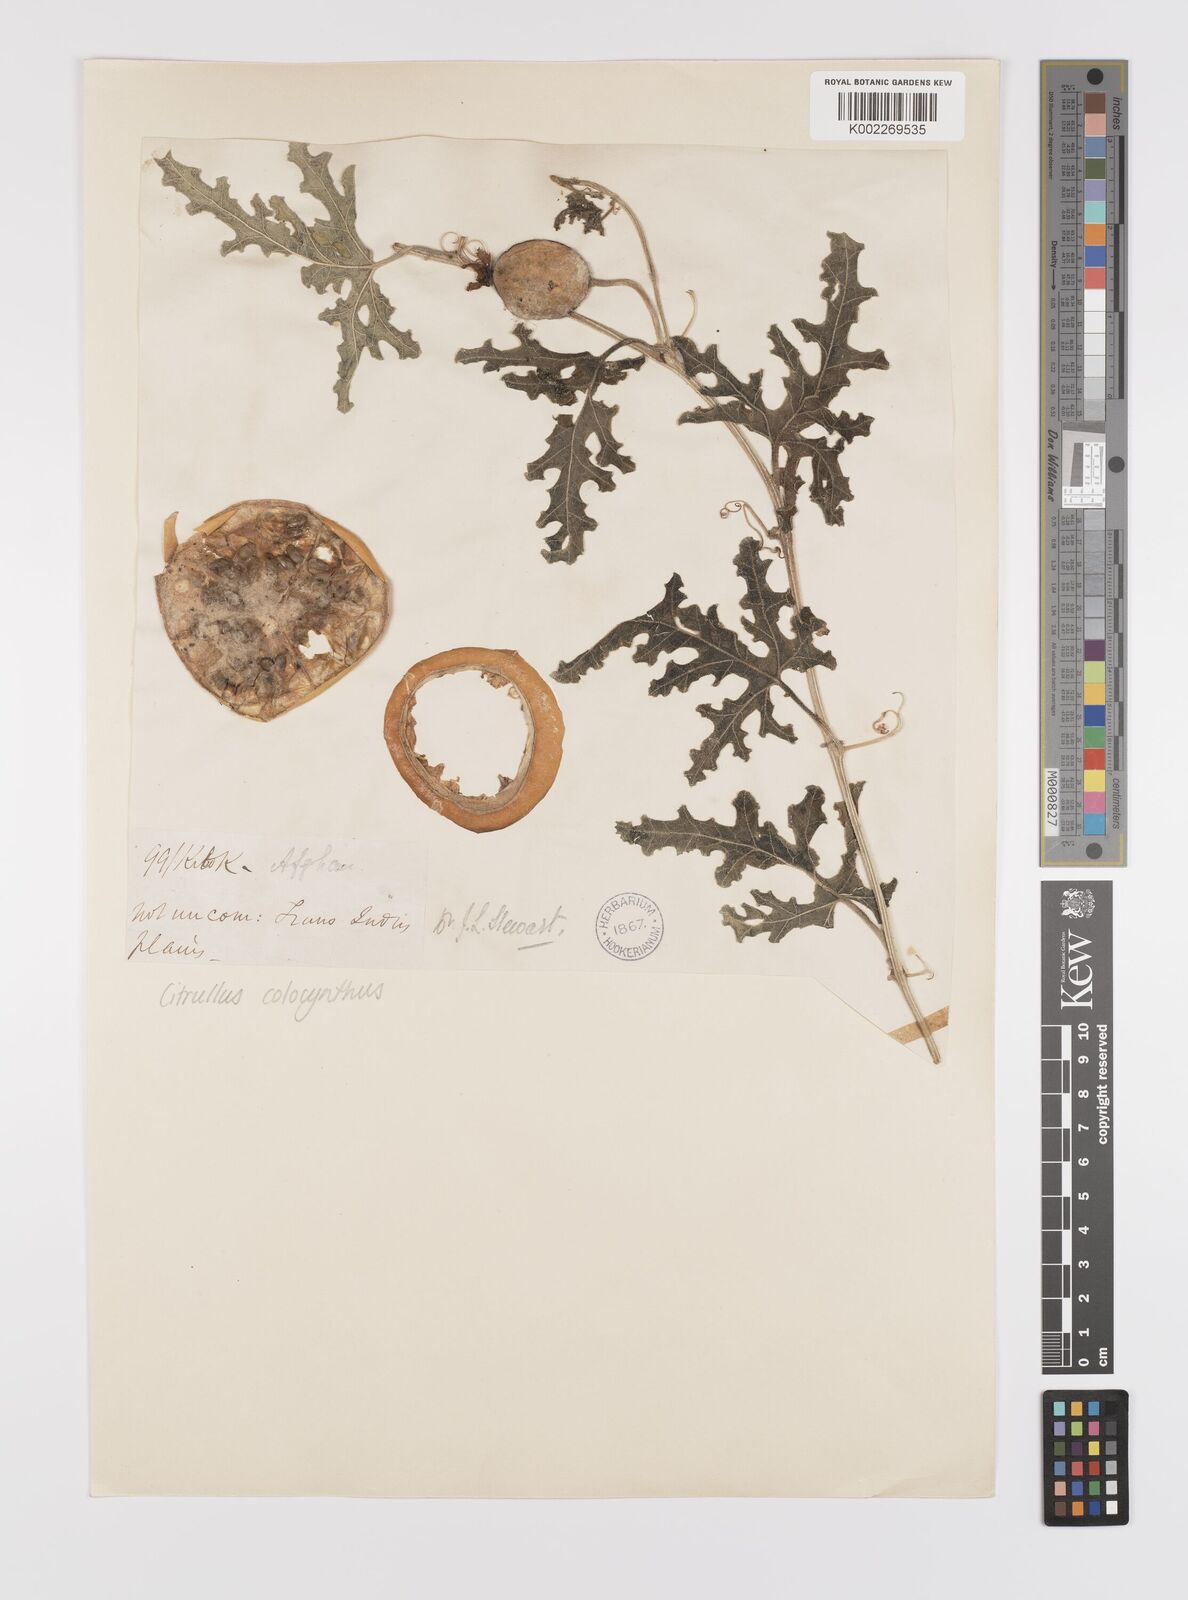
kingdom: Plantae
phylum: Tracheophyta
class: Magnoliopsida
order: Cucurbitales
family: Cucurbitaceae
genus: Citrullus
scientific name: Citrullus colocynthis
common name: Colocynth
